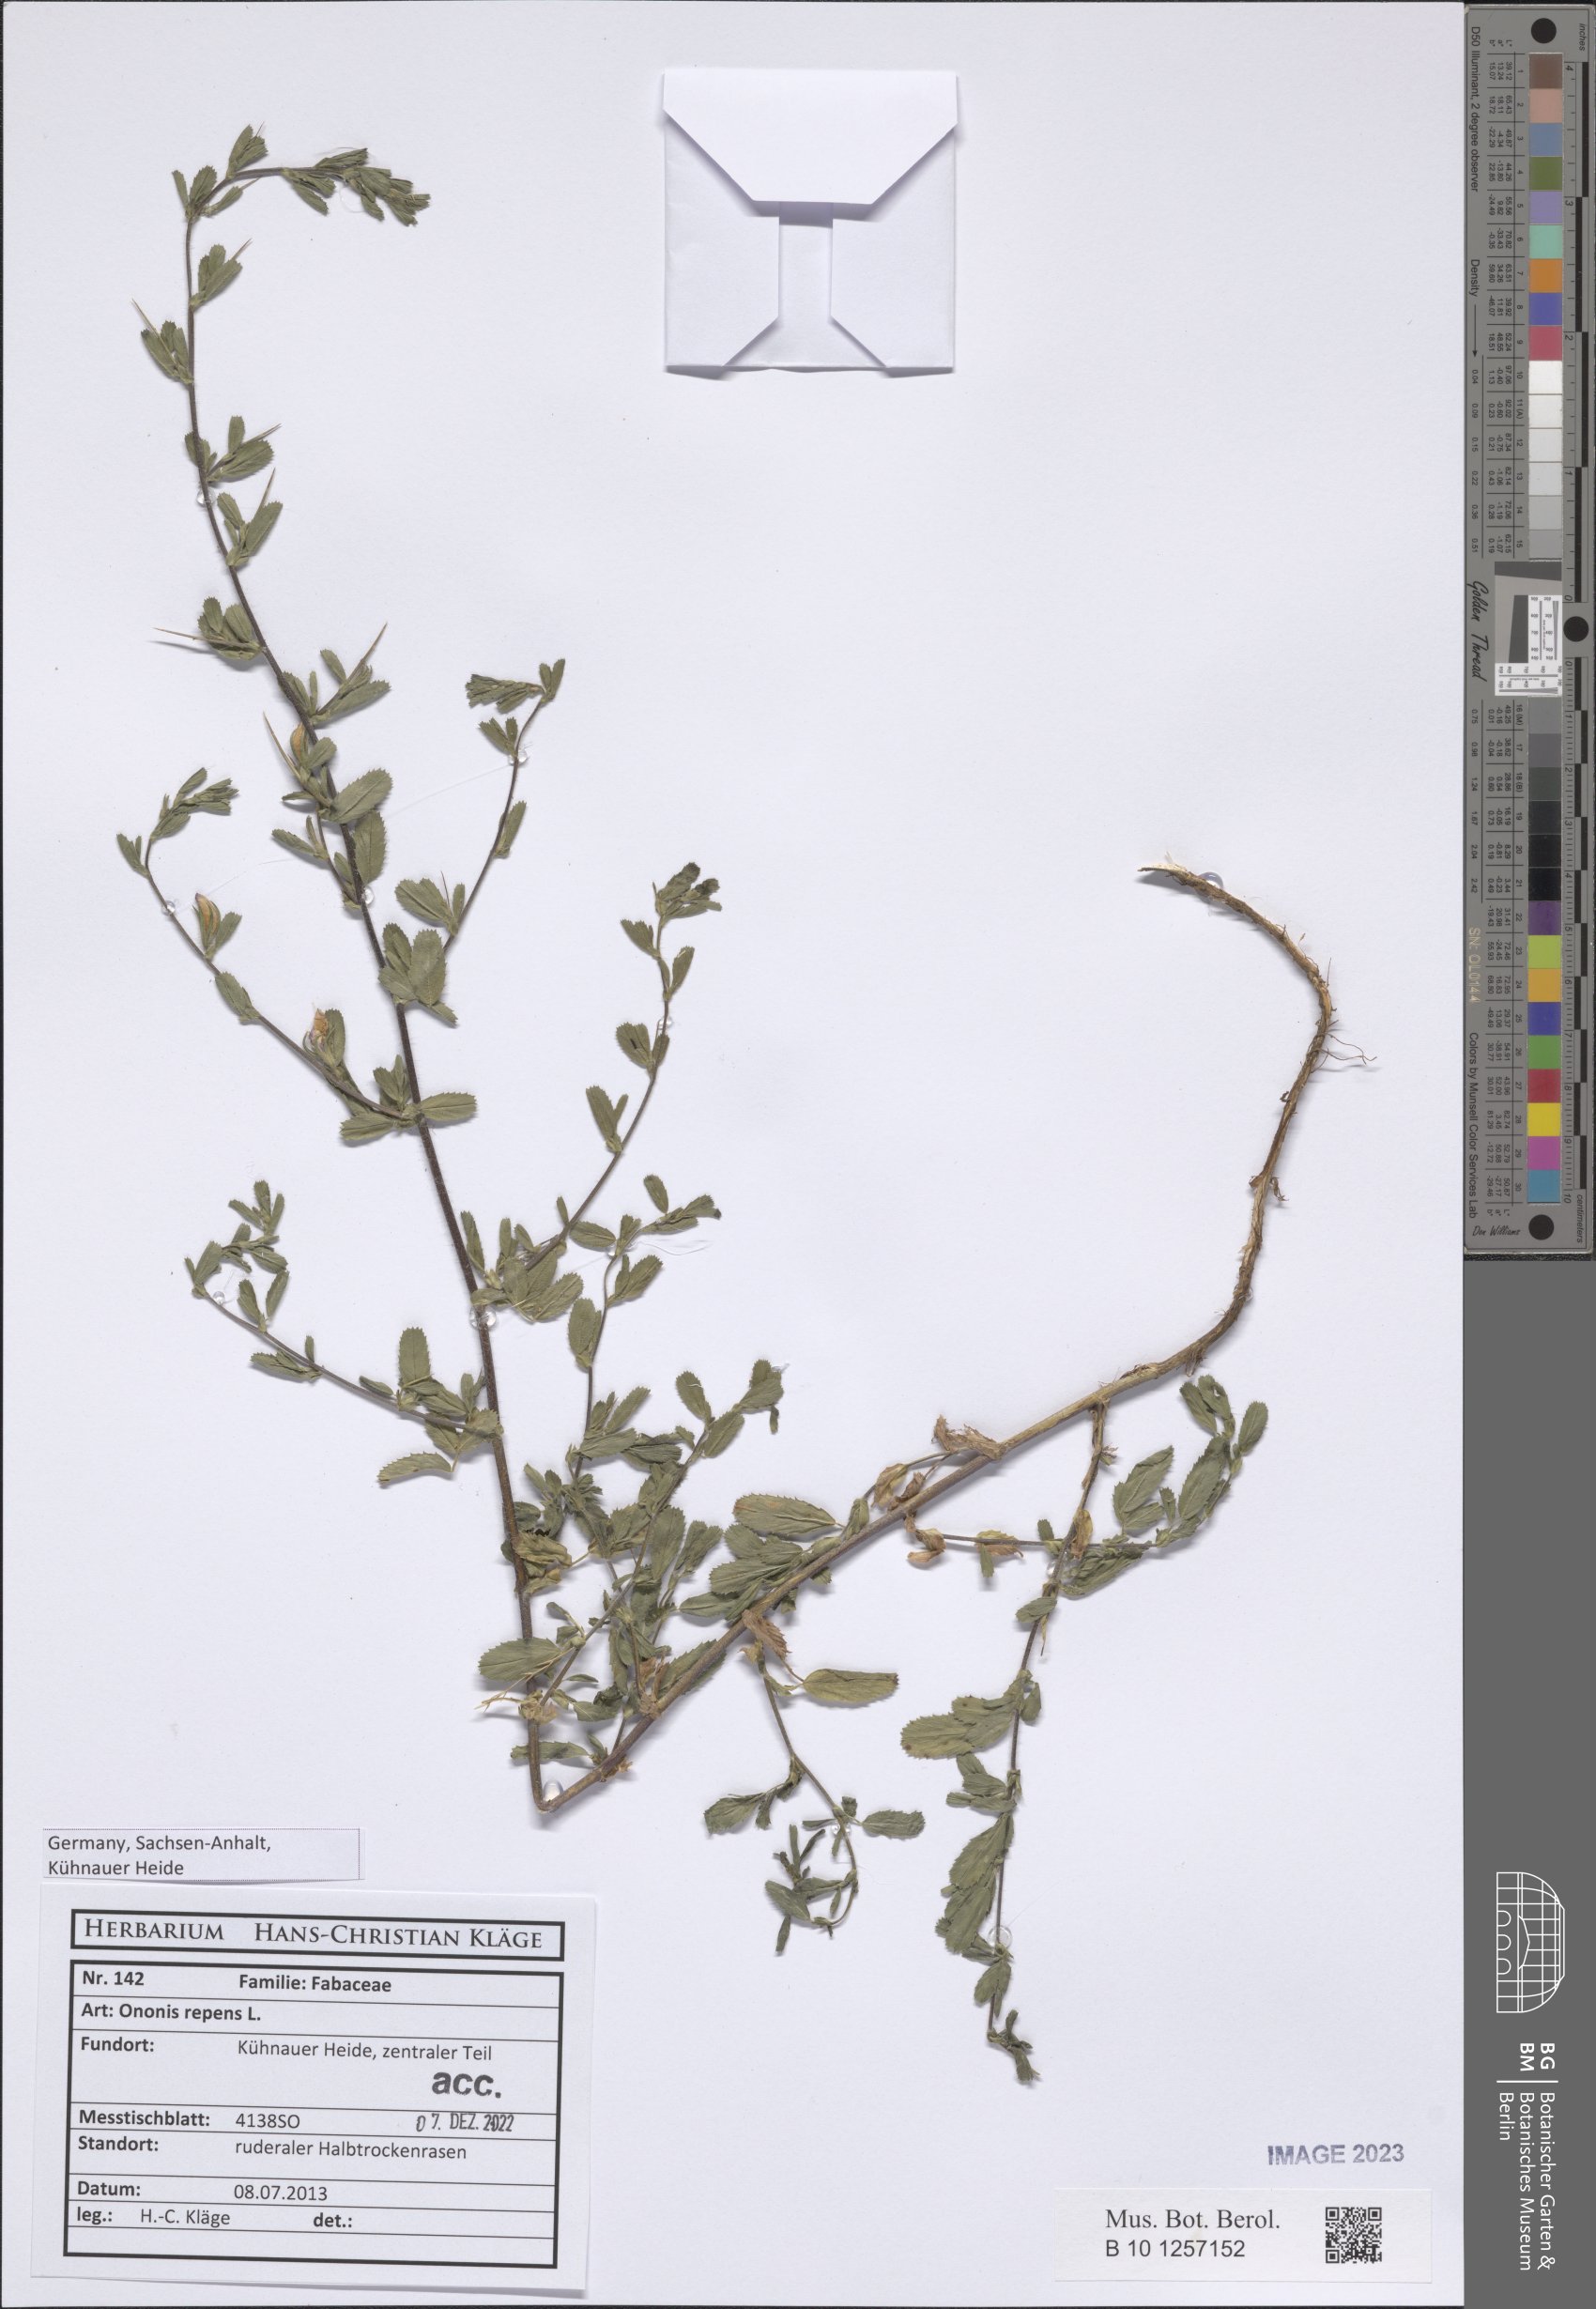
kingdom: Plantae
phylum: Tracheophyta
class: Magnoliopsida
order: Fabales
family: Fabaceae
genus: Ononis
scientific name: Ononis spinosa
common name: Spiny restharrow
